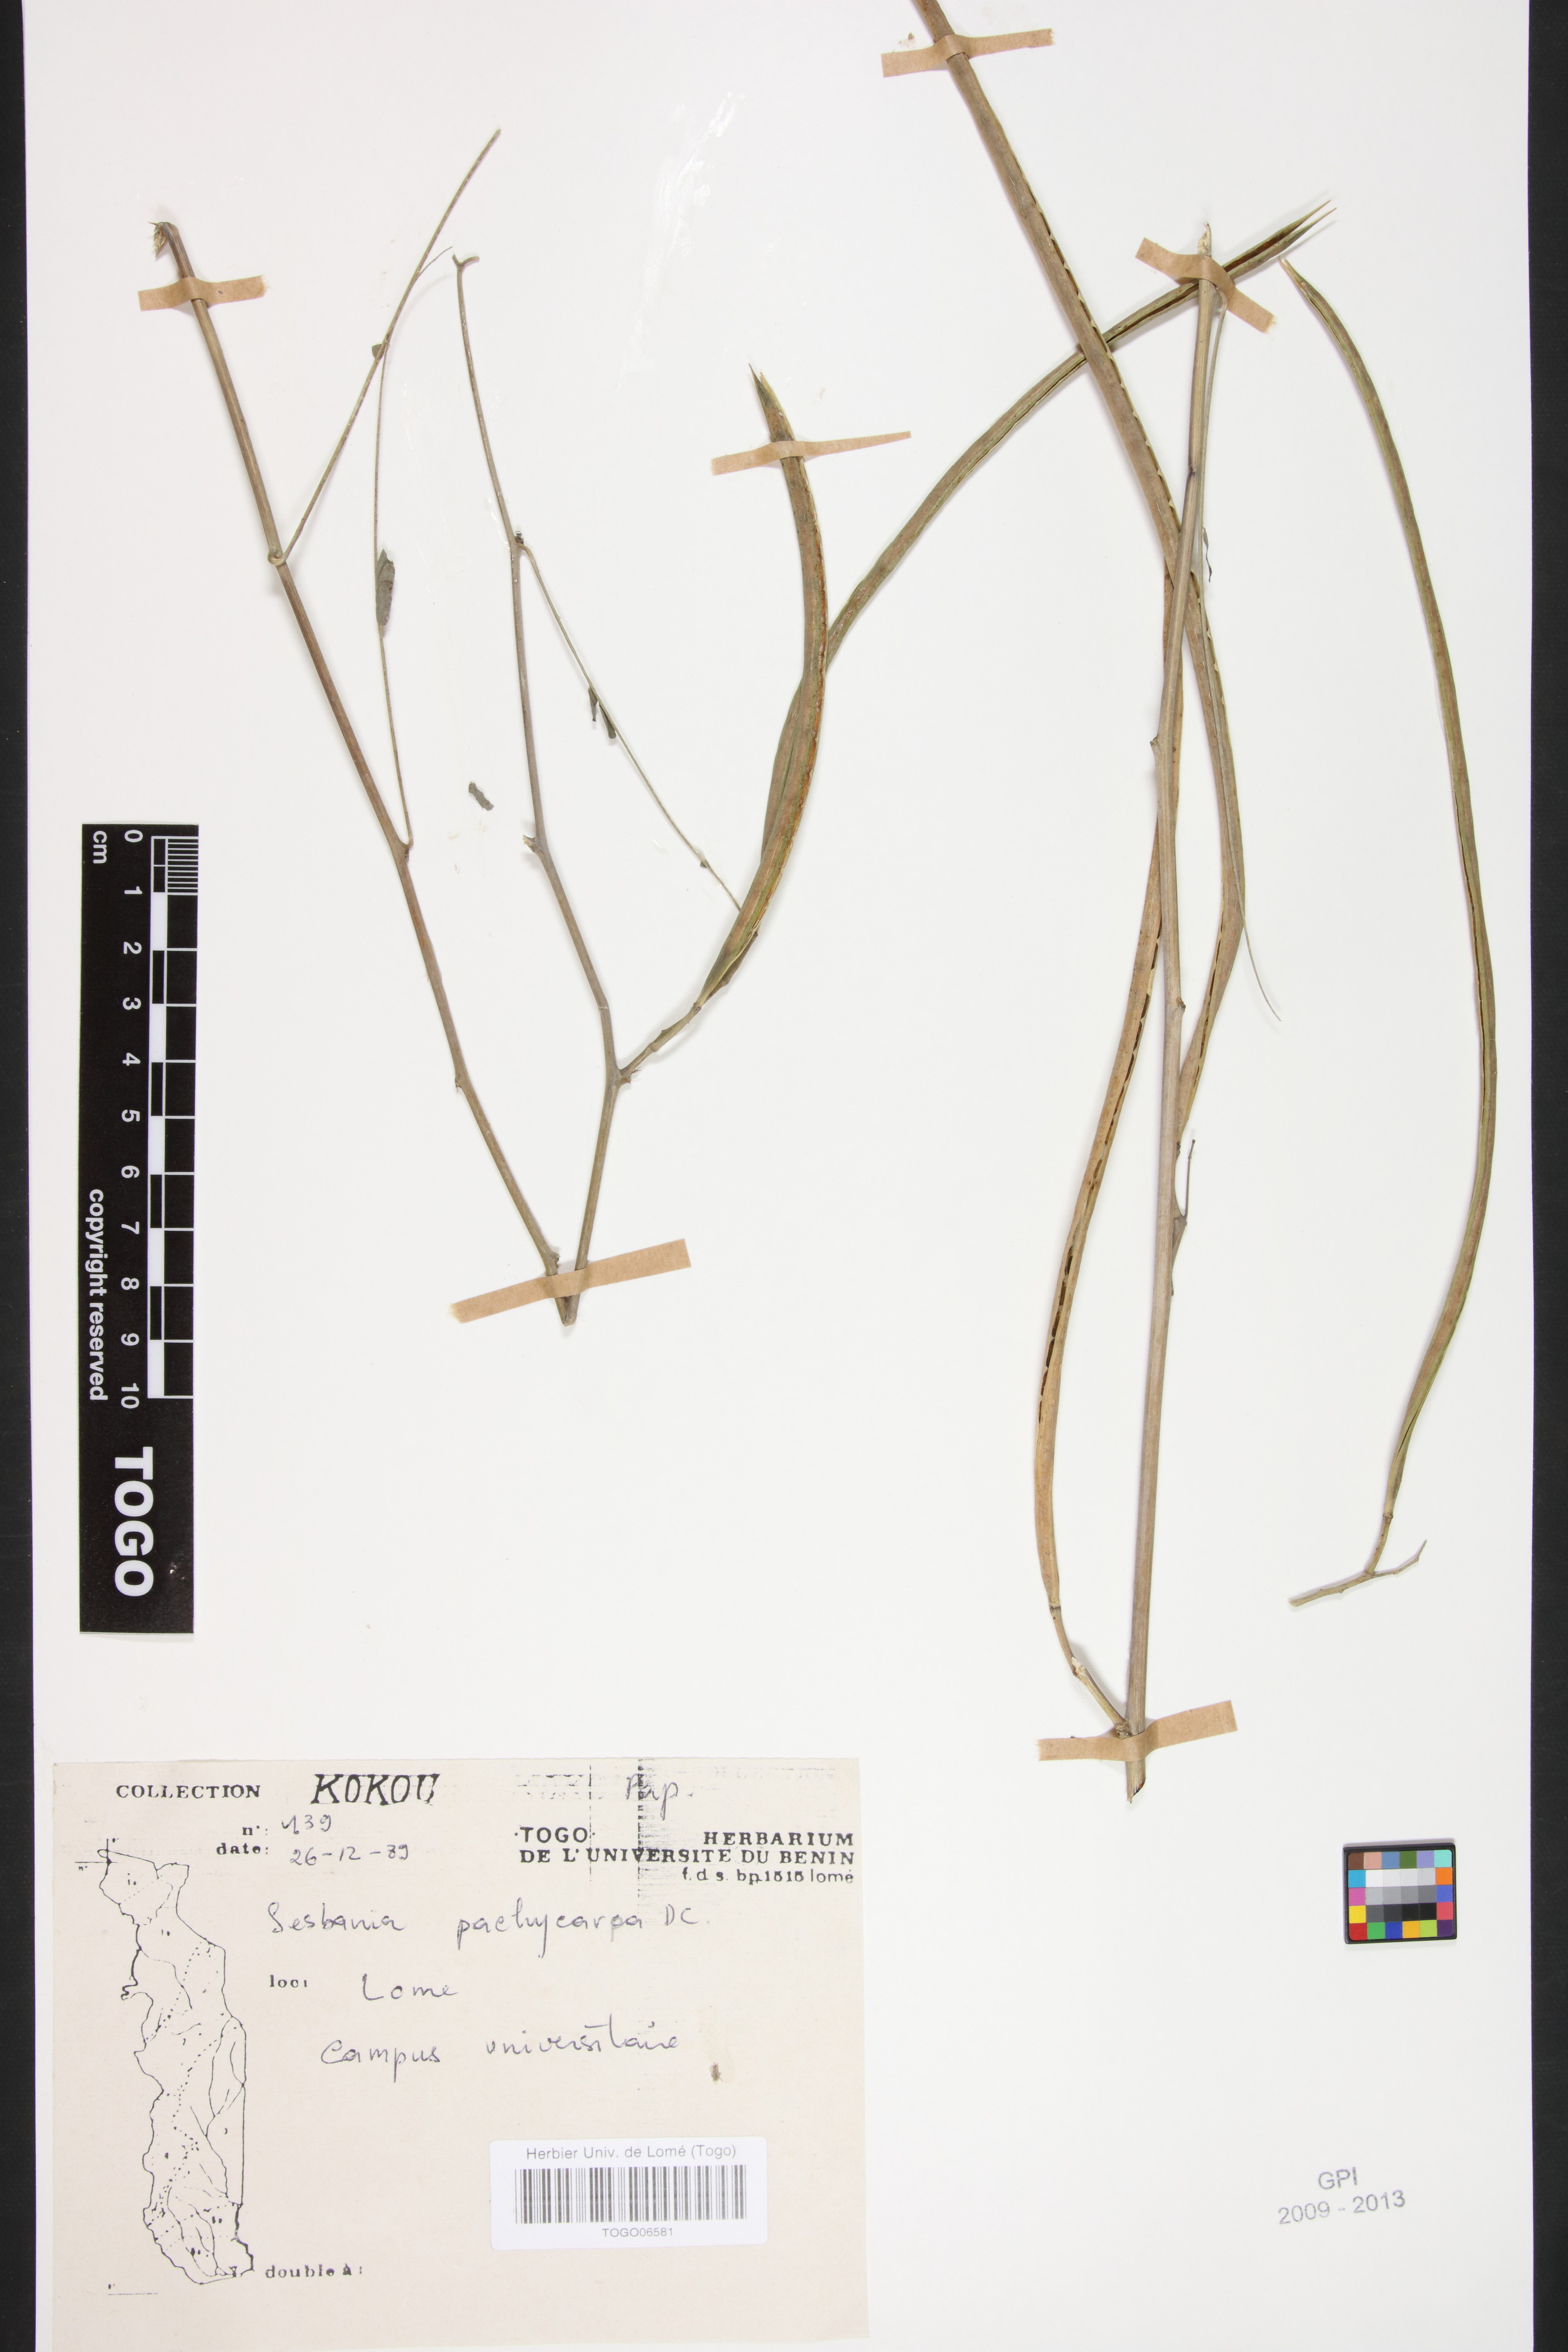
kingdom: Plantae
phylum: Tracheophyta
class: Magnoliopsida
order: Fabales
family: Fabaceae
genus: Sesbania
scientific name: Sesbania pachycarpa
